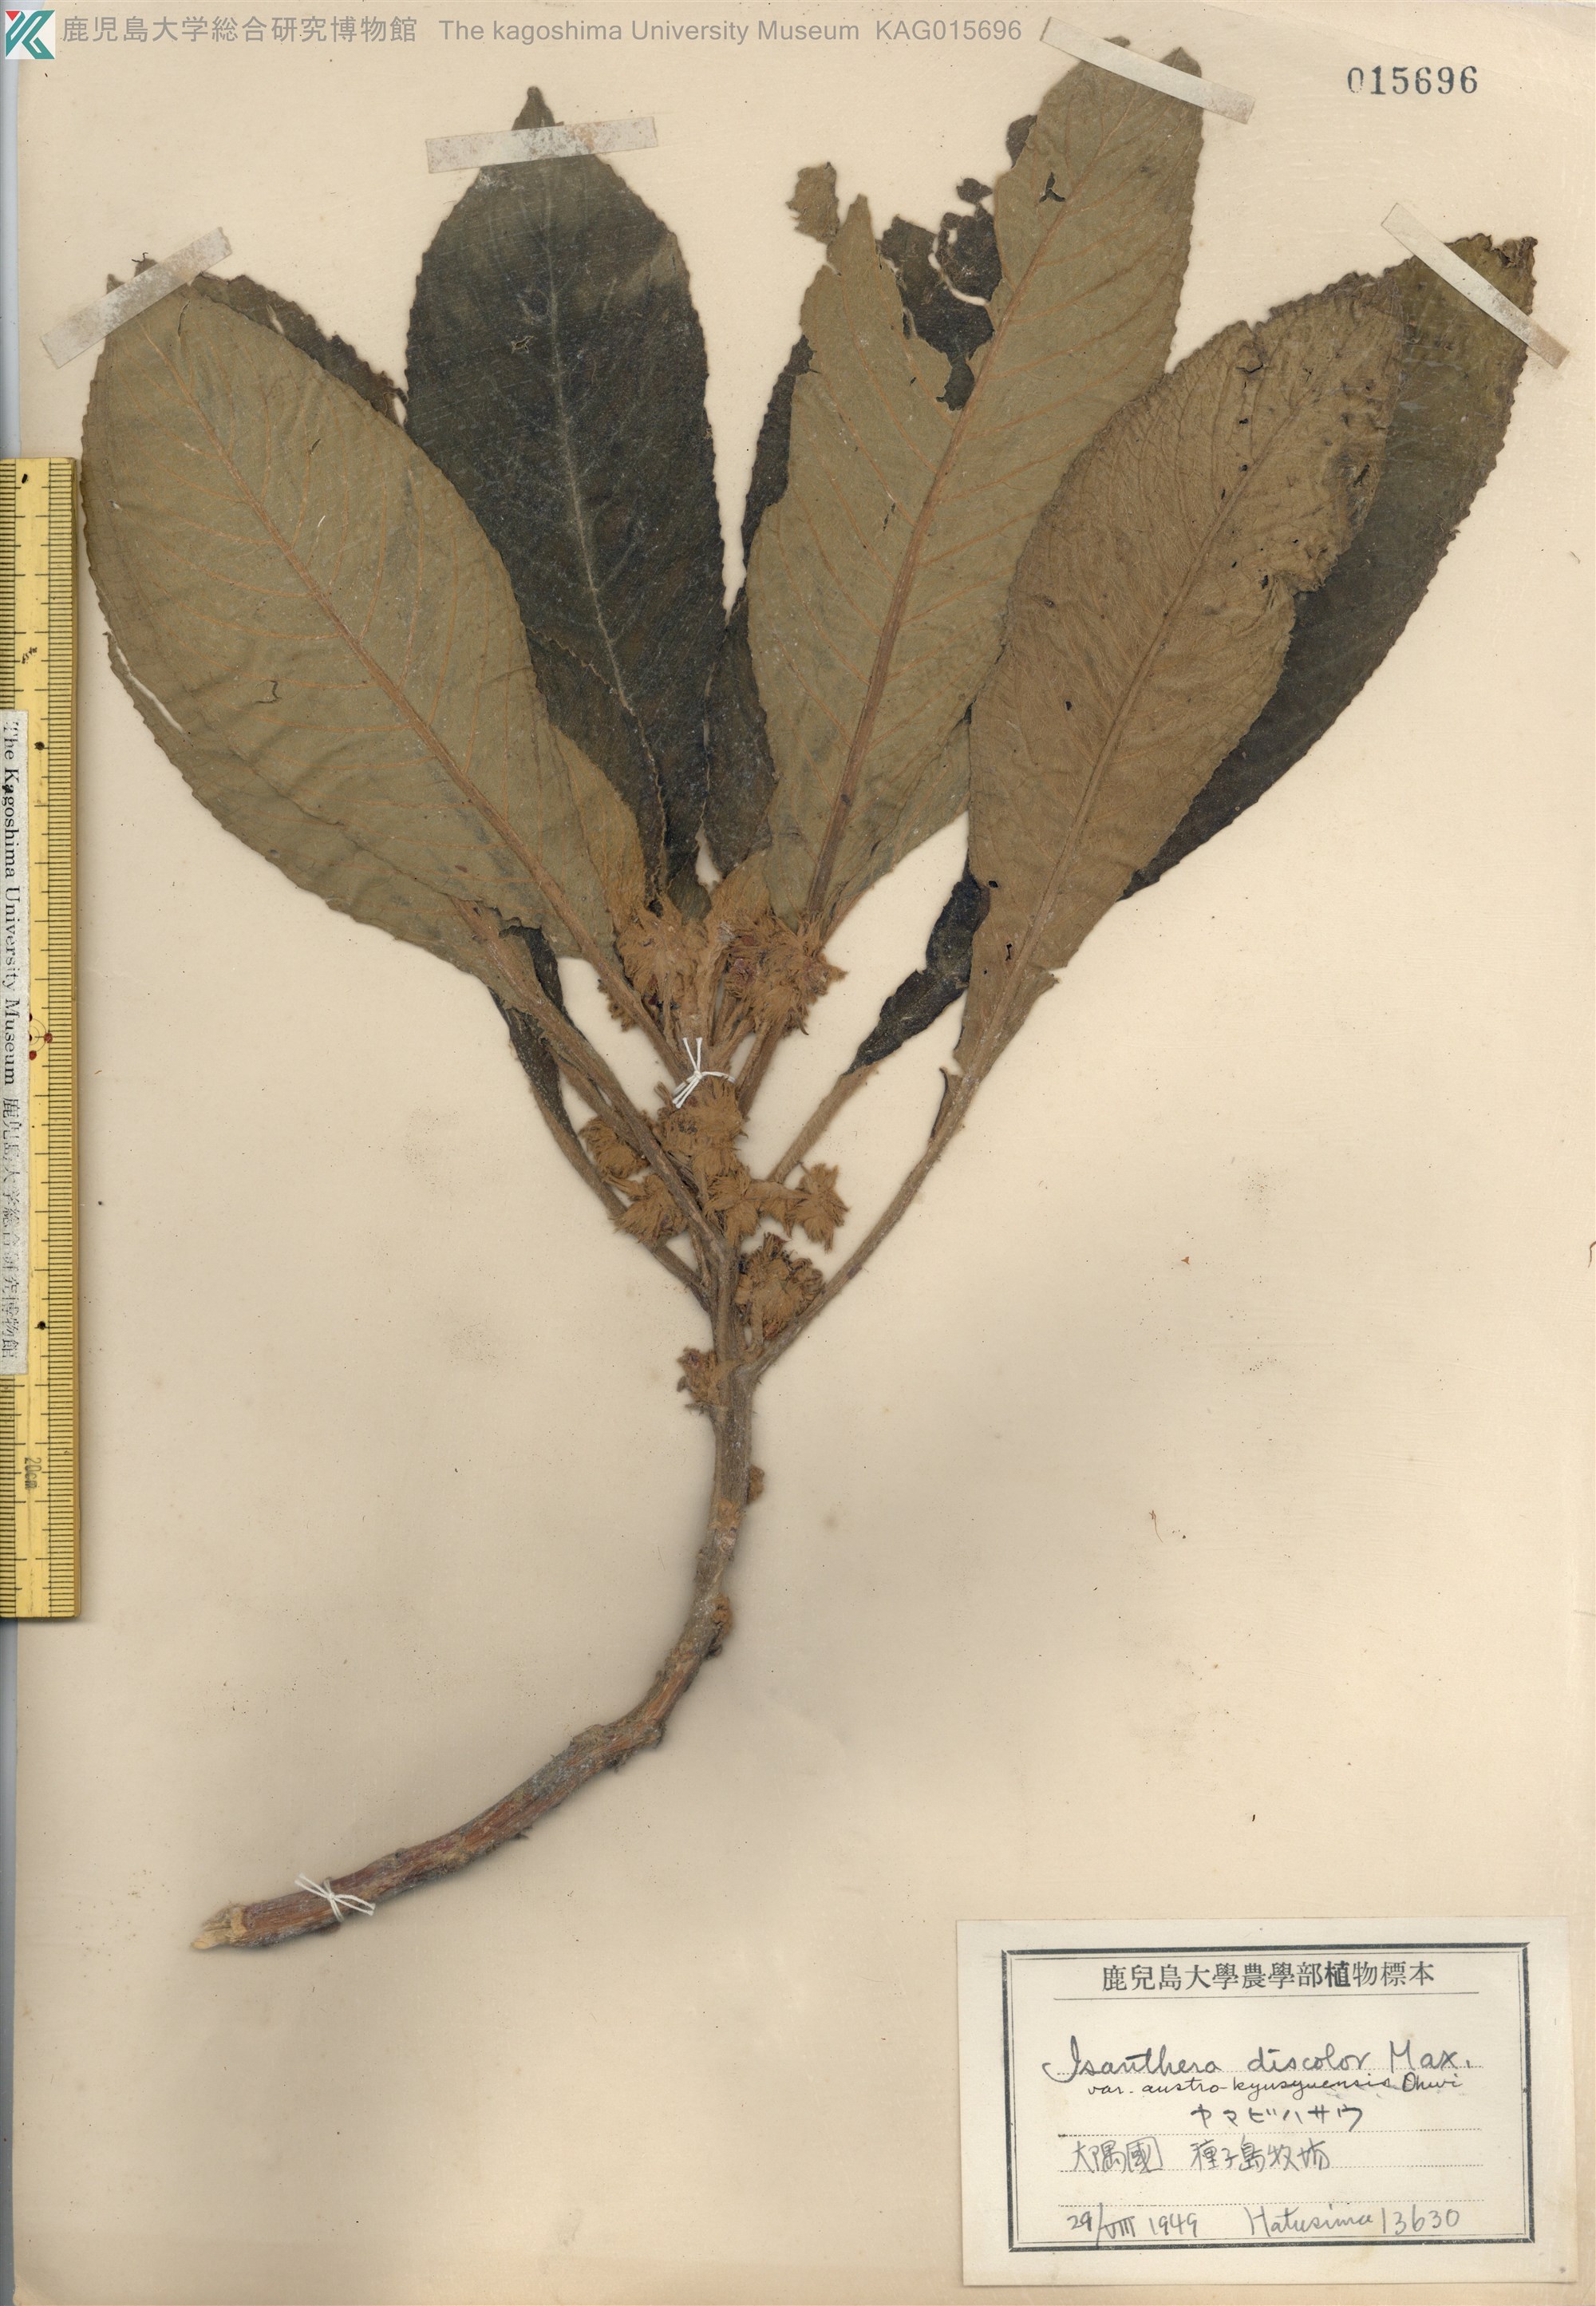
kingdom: Plantae
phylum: Tracheophyta
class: Magnoliopsida
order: Lamiales
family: Gesneriaceae
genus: Rhynchotechum
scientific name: Rhynchotechum discolor
